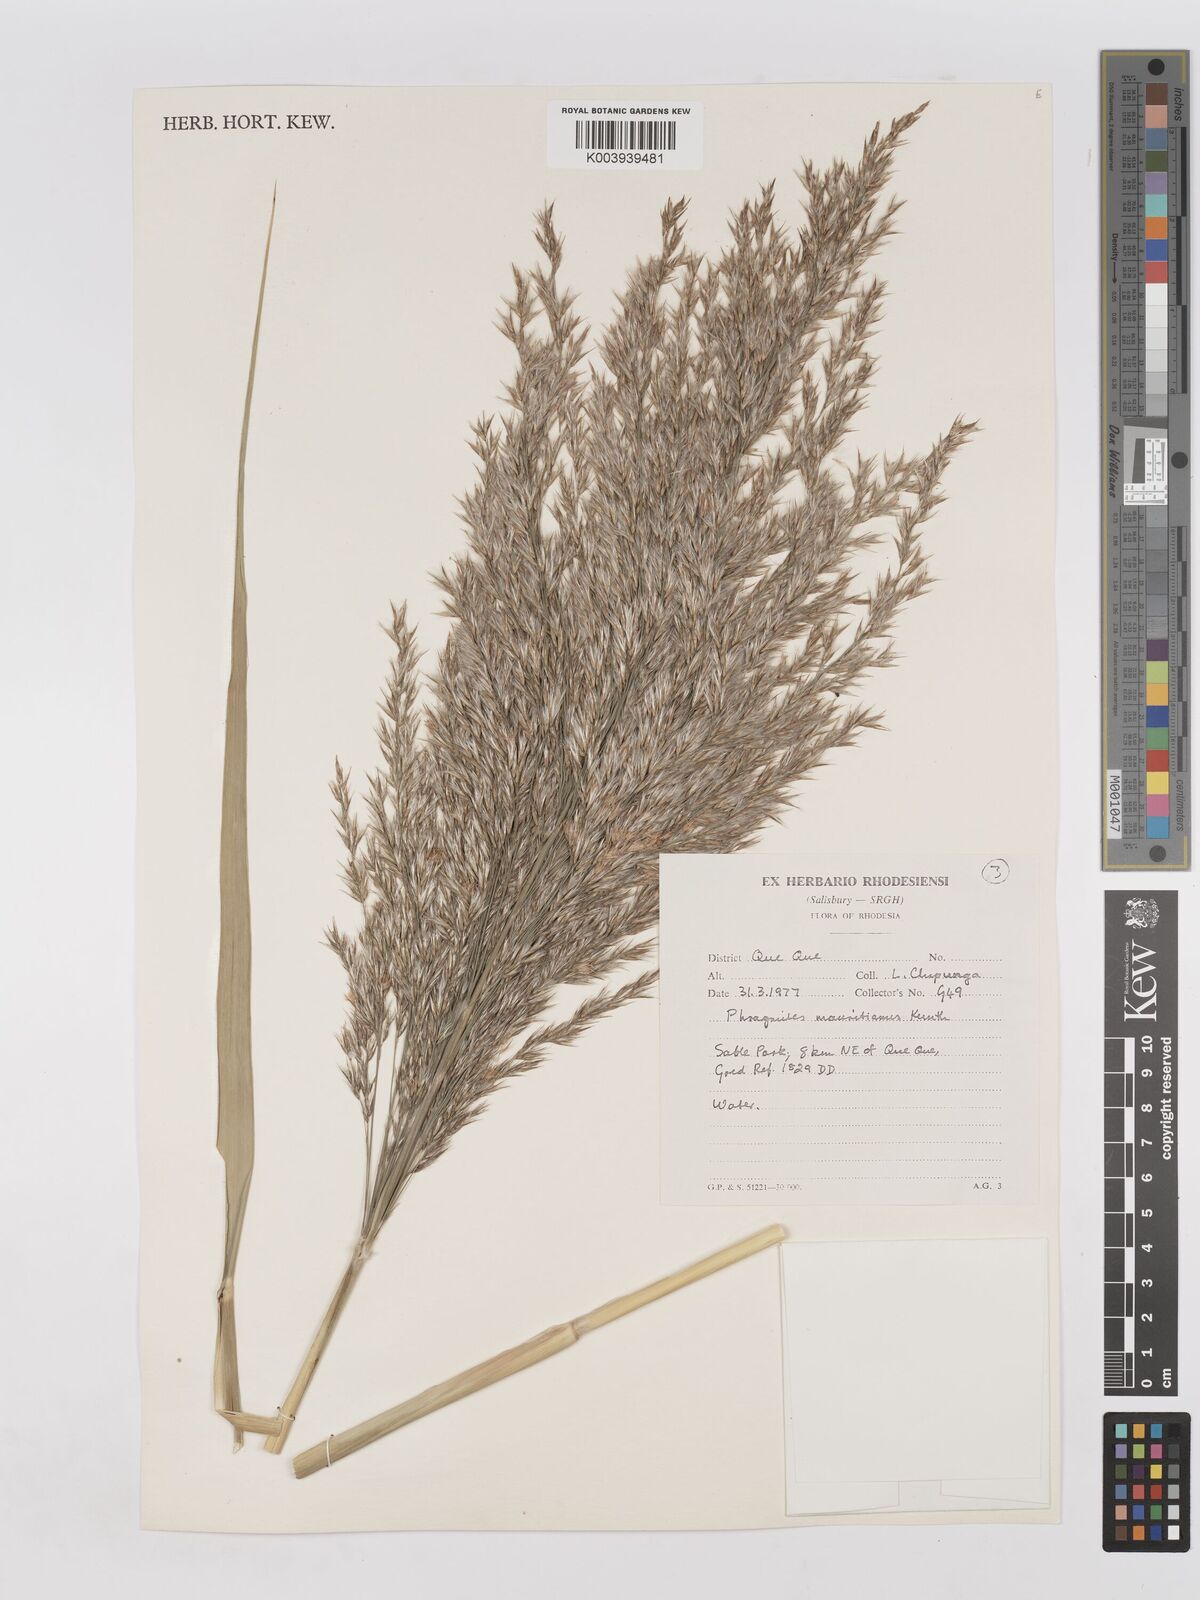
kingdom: Plantae
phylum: Tracheophyta
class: Liliopsida
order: Poales
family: Poaceae
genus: Phragmites
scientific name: Phragmites mauritianus
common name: Reed grass
